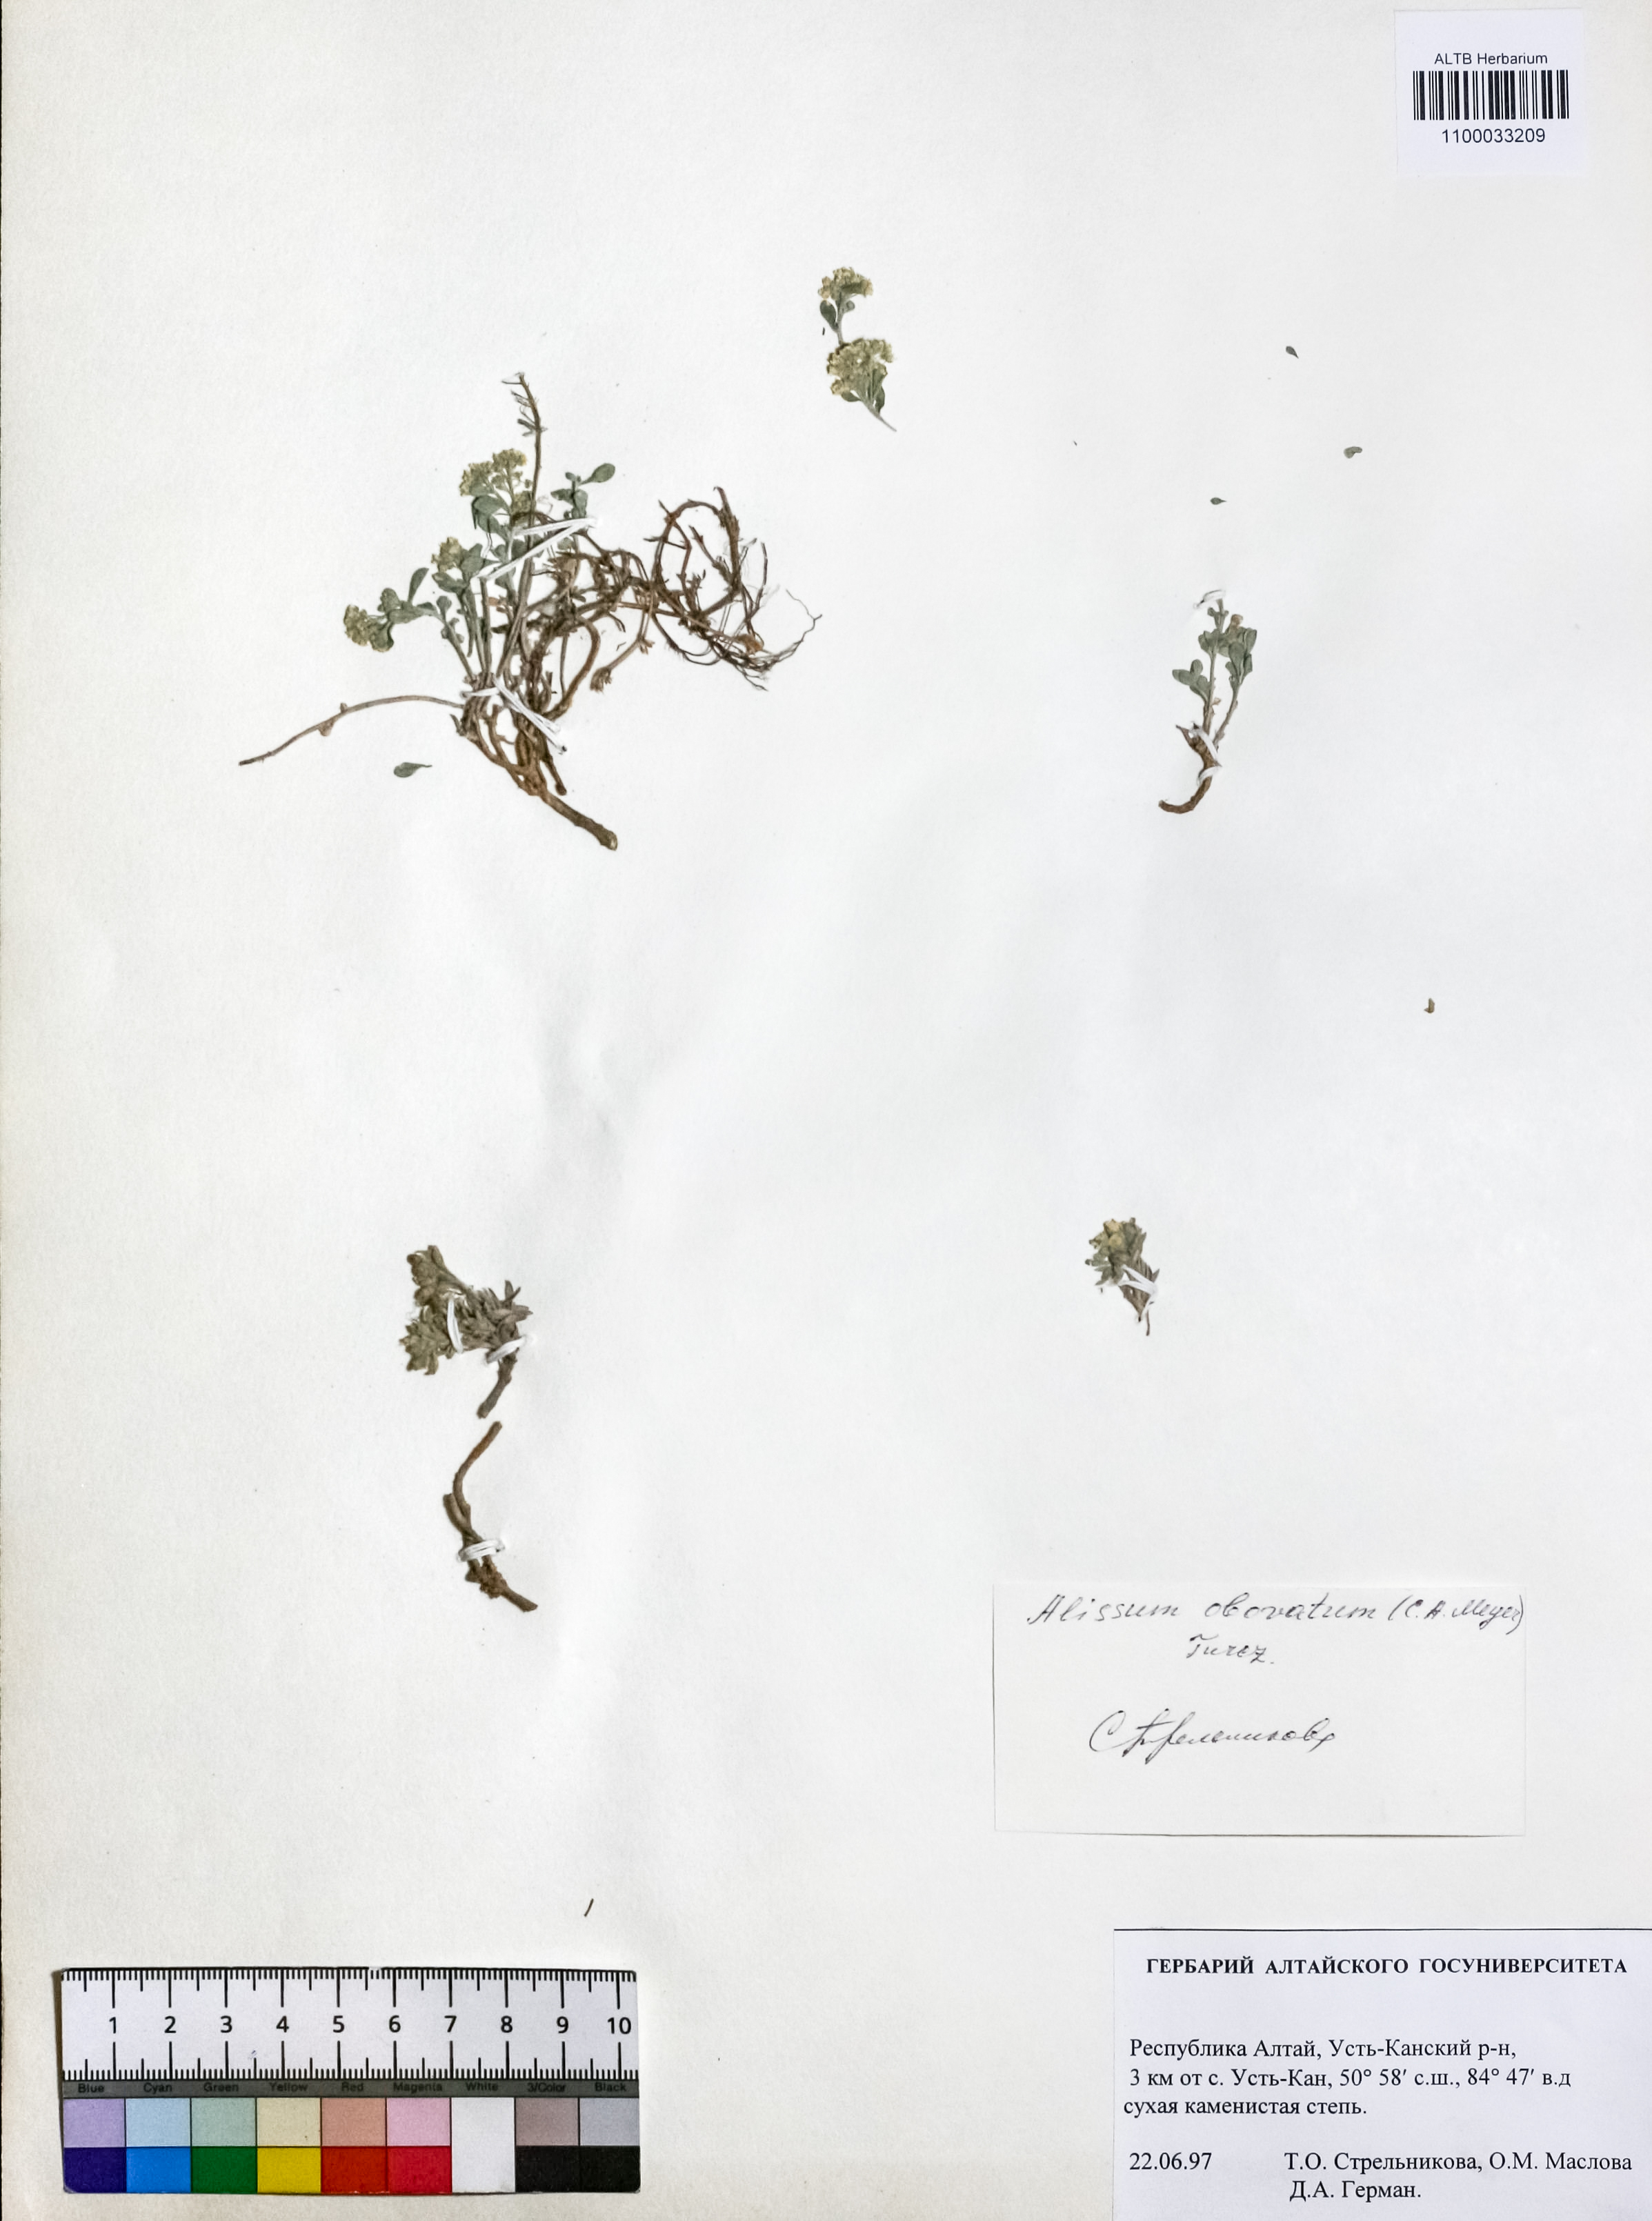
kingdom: Plantae
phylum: Tracheophyta
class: Magnoliopsida
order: Brassicales
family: Brassicaceae
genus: Odontarrhena
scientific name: Odontarrhena obovata
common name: American alyssum
